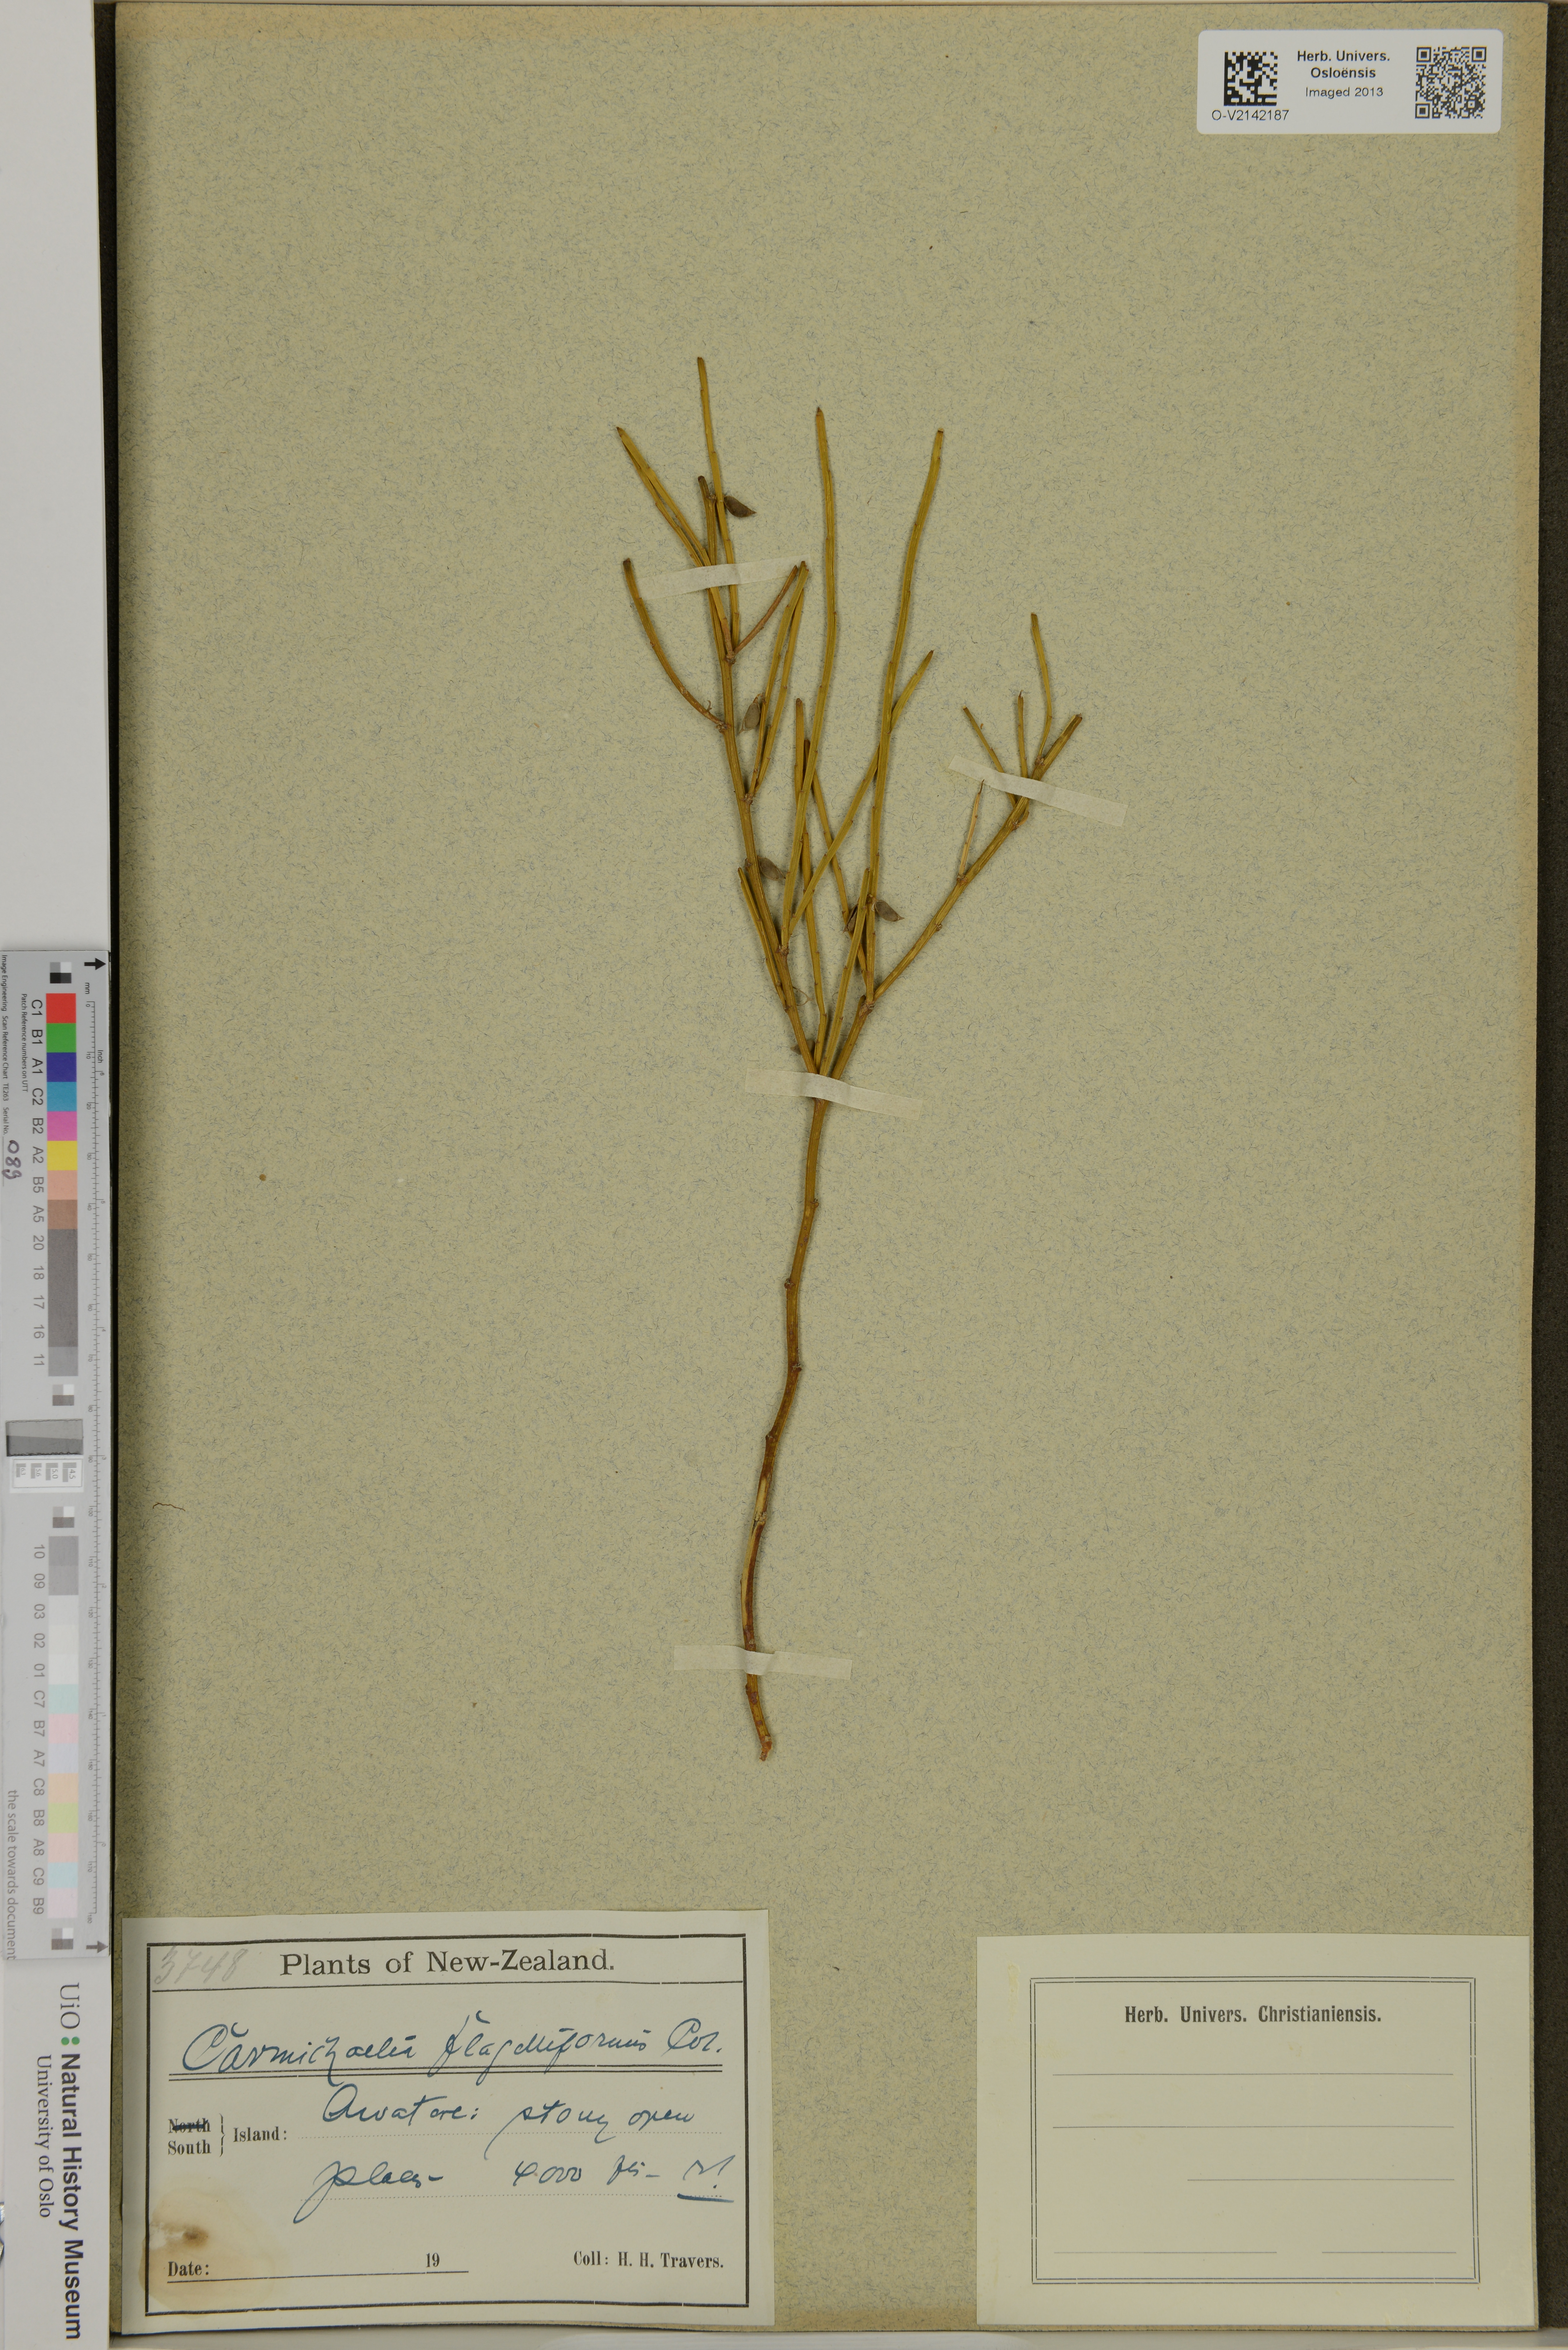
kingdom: Plantae
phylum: Tracheophyta
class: Magnoliopsida
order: Fabales
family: Fabaceae
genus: Carmichaelia
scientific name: Carmichaelia flagelliformis
